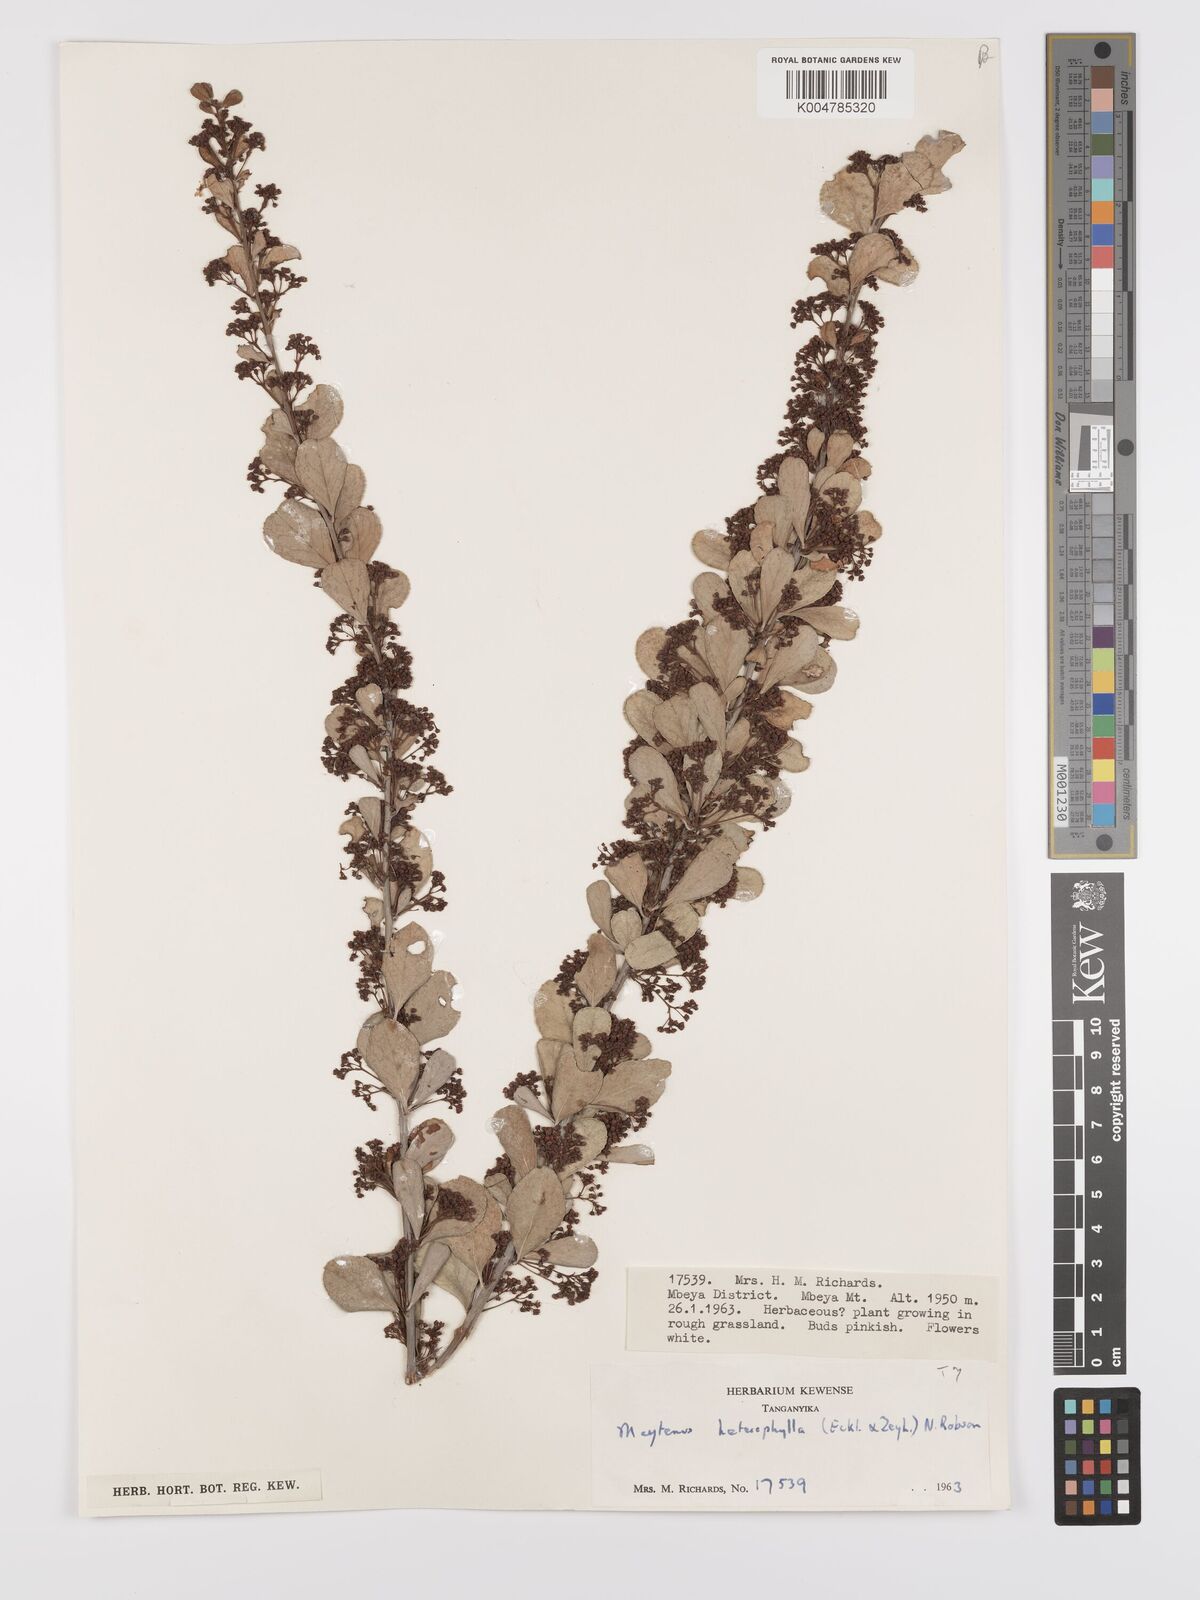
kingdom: Plantae
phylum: Tracheophyta
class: Magnoliopsida
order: Celastrales
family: Celastraceae
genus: Gymnosporia
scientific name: Gymnosporia heterophylla
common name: Angle-stem spikethorn
